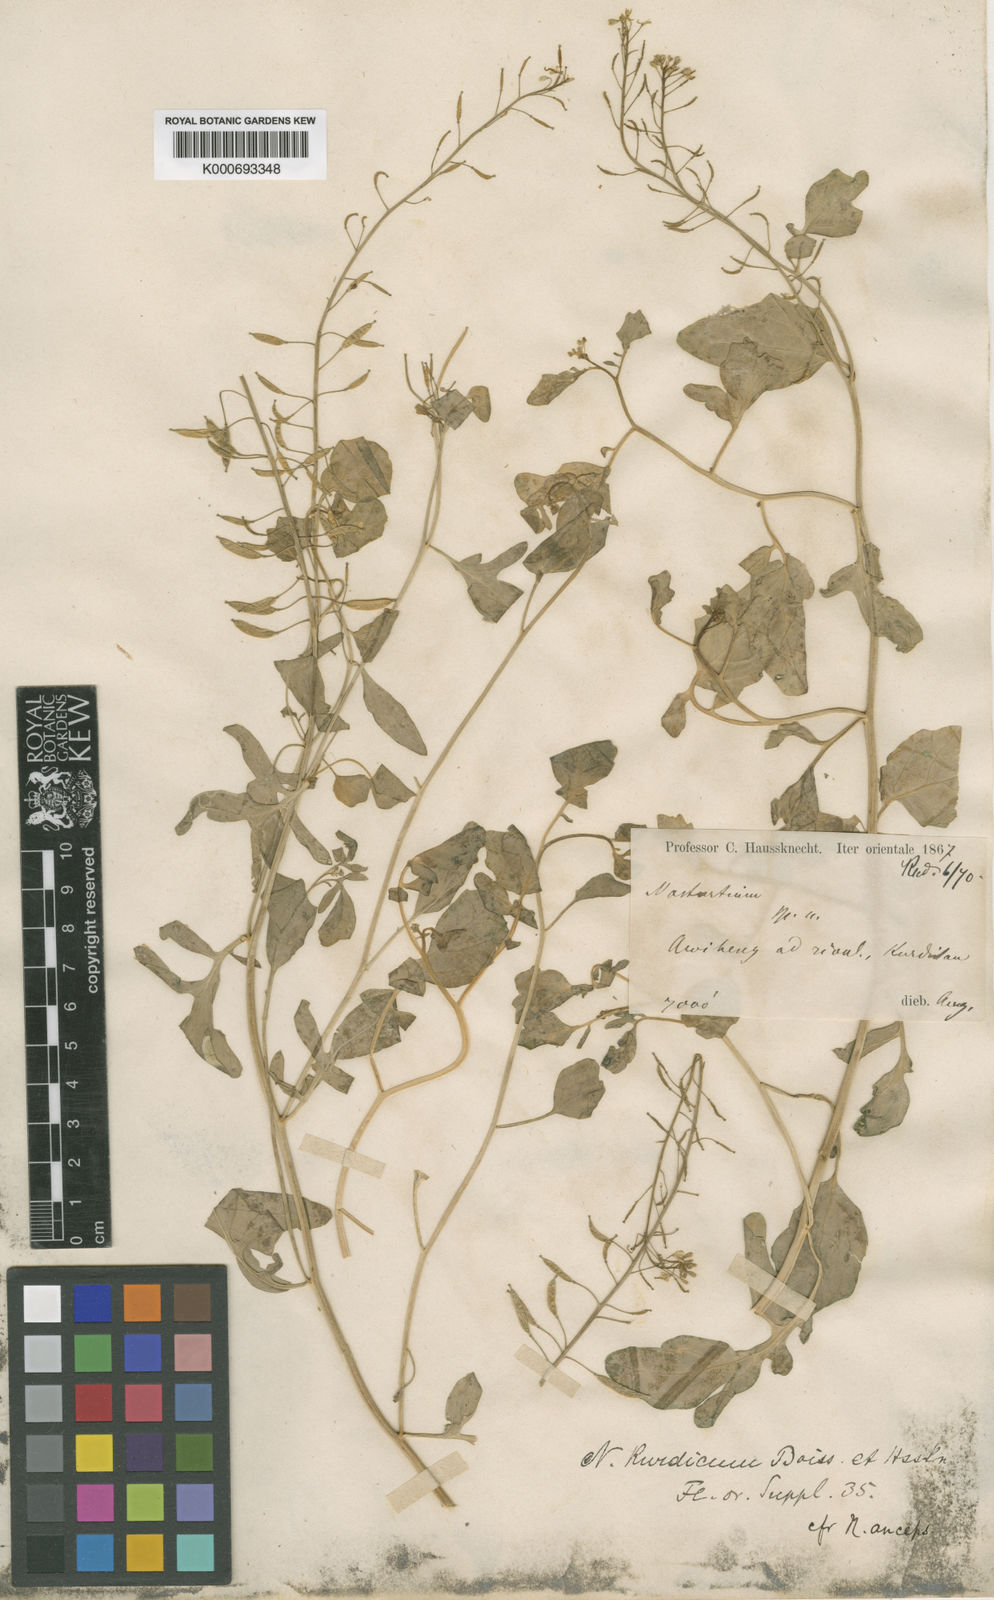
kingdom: Plantae
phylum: Tracheophyta
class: Magnoliopsida
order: Brassicales
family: Brassicaceae
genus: Rorippa
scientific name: Rorippa kurdica
